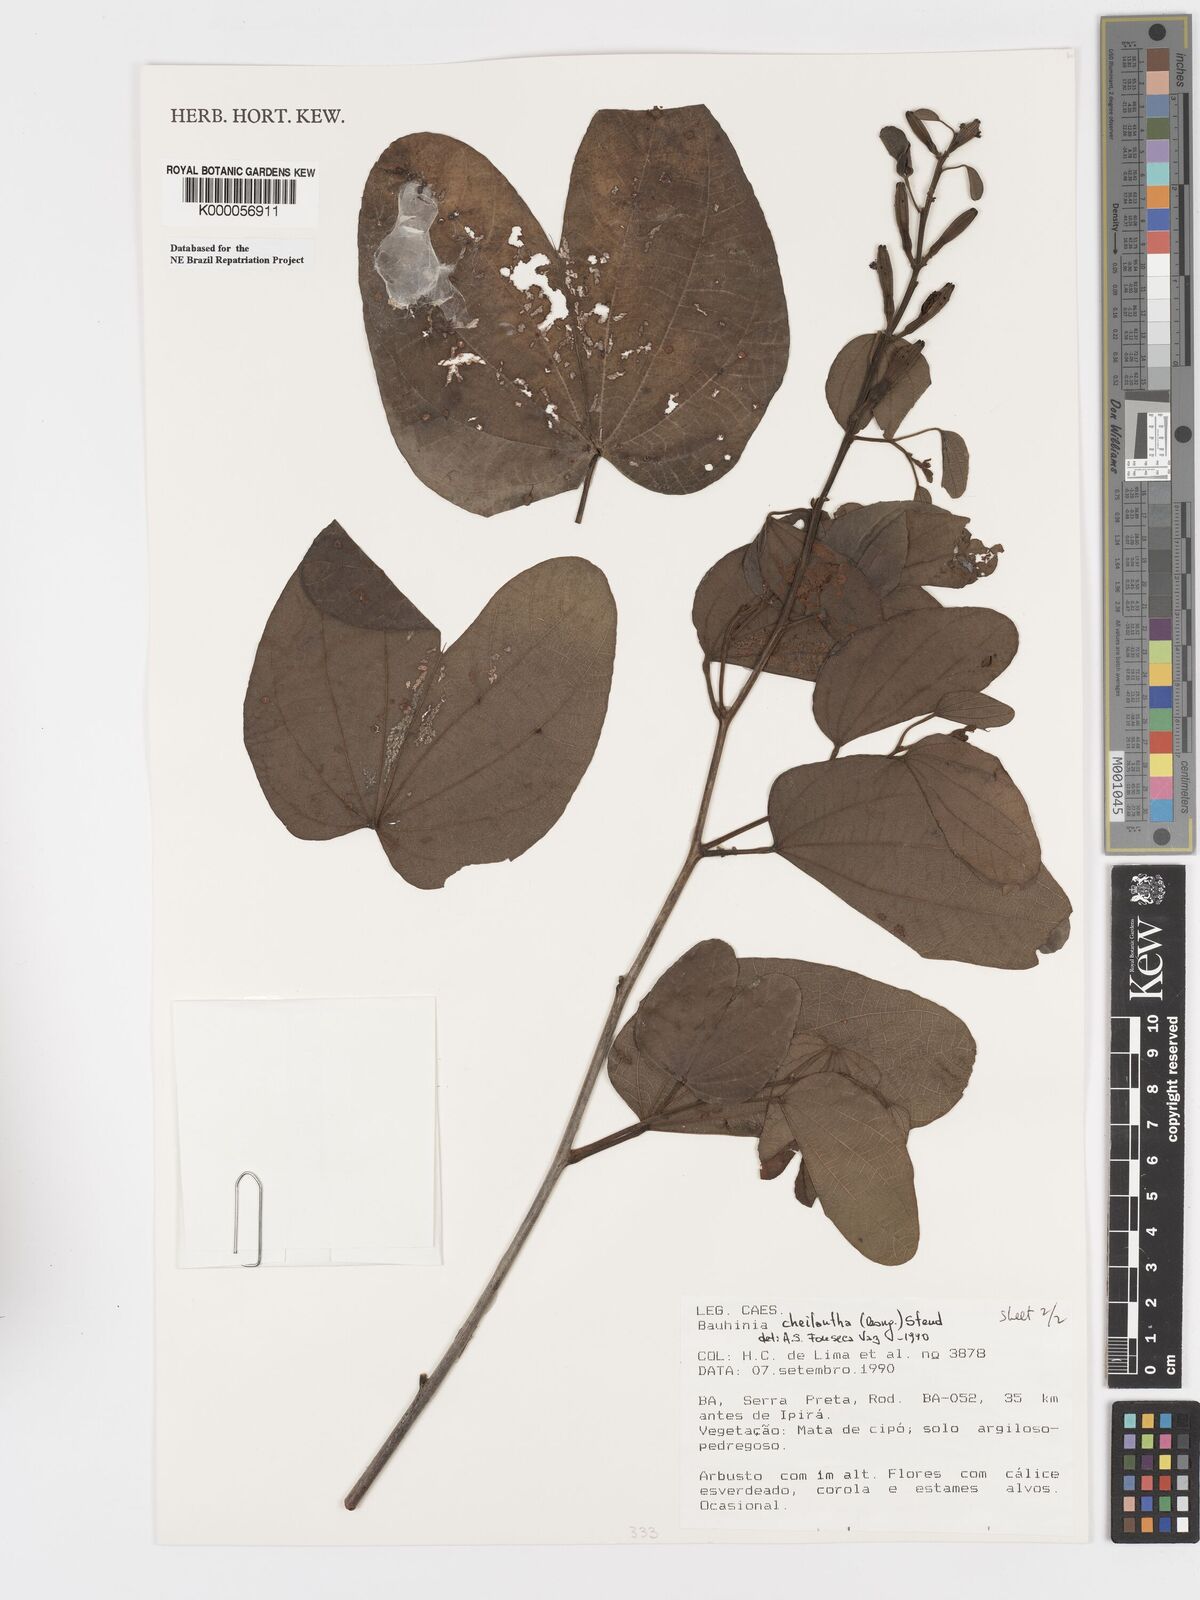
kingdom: Plantae
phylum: Tracheophyta
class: Magnoliopsida
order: Fabales
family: Fabaceae
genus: Bauhinia
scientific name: Bauhinia cheilantha
